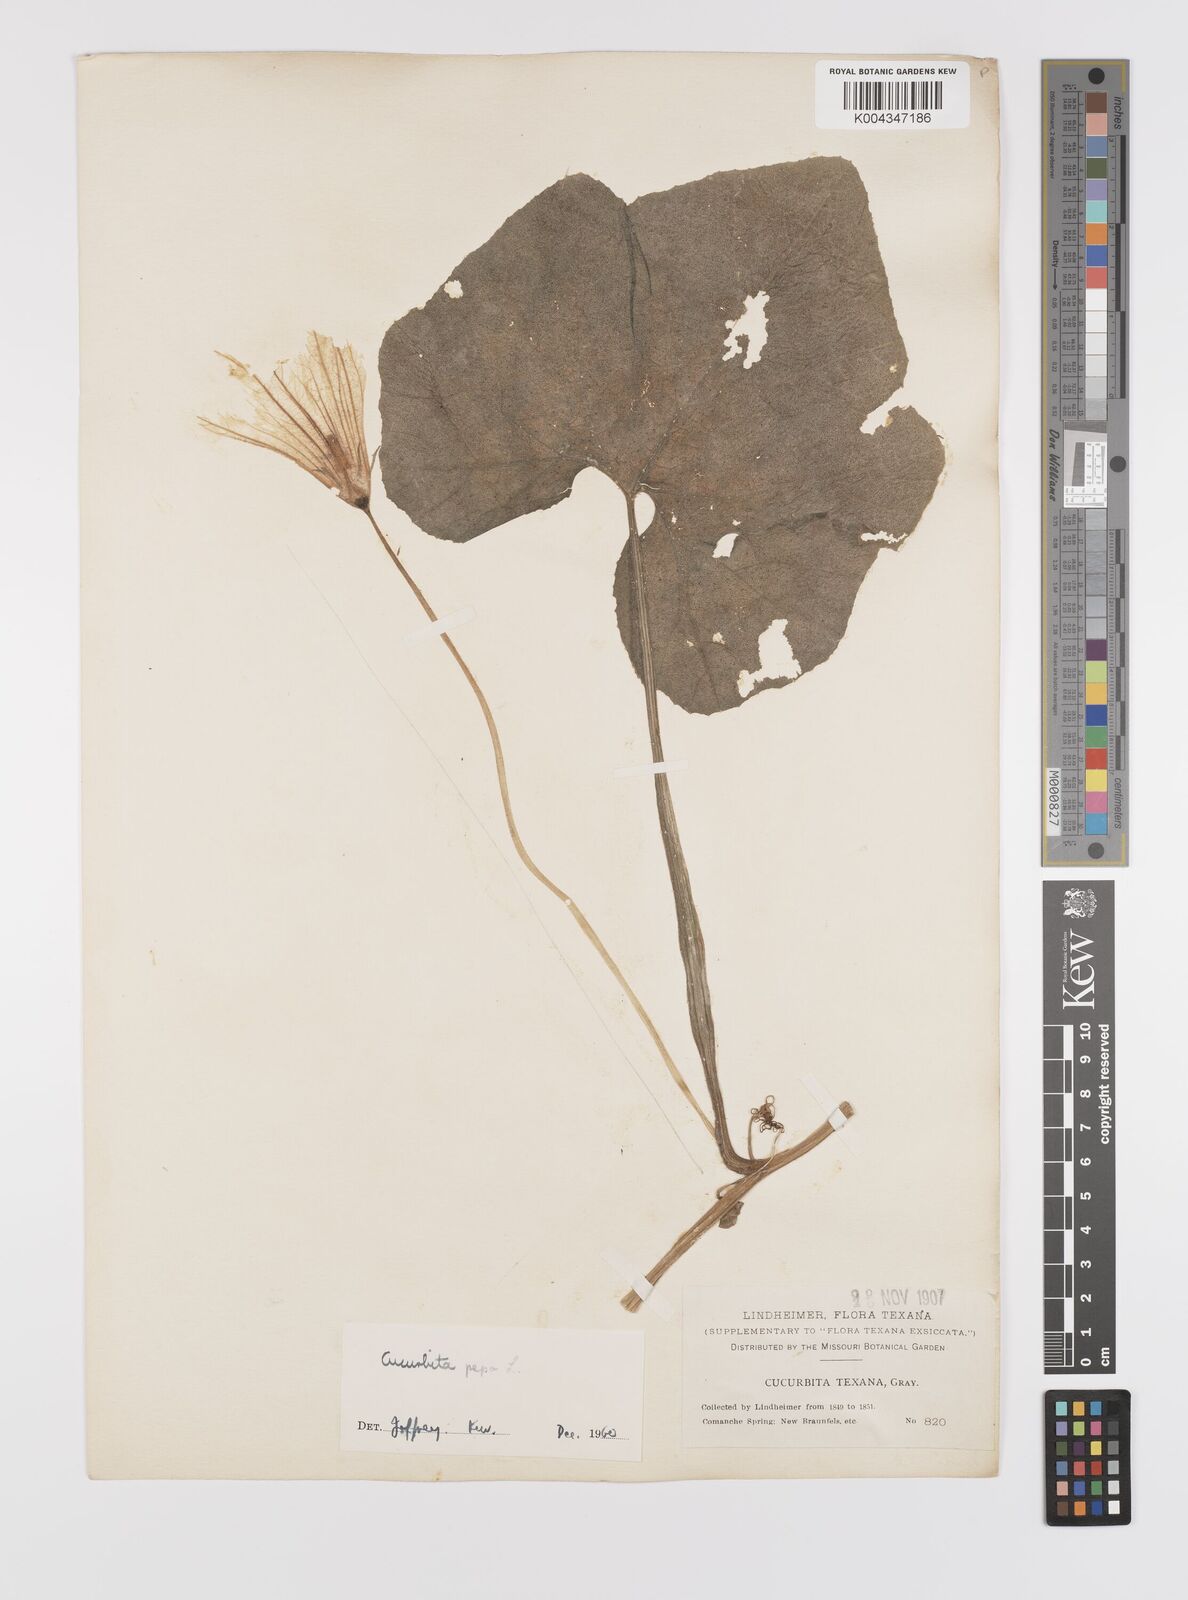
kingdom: Plantae
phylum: Tracheophyta
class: Magnoliopsida
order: Cucurbitales
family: Cucurbitaceae
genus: Cucurbita
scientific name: Cucurbita palmata
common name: Coyote-melon
